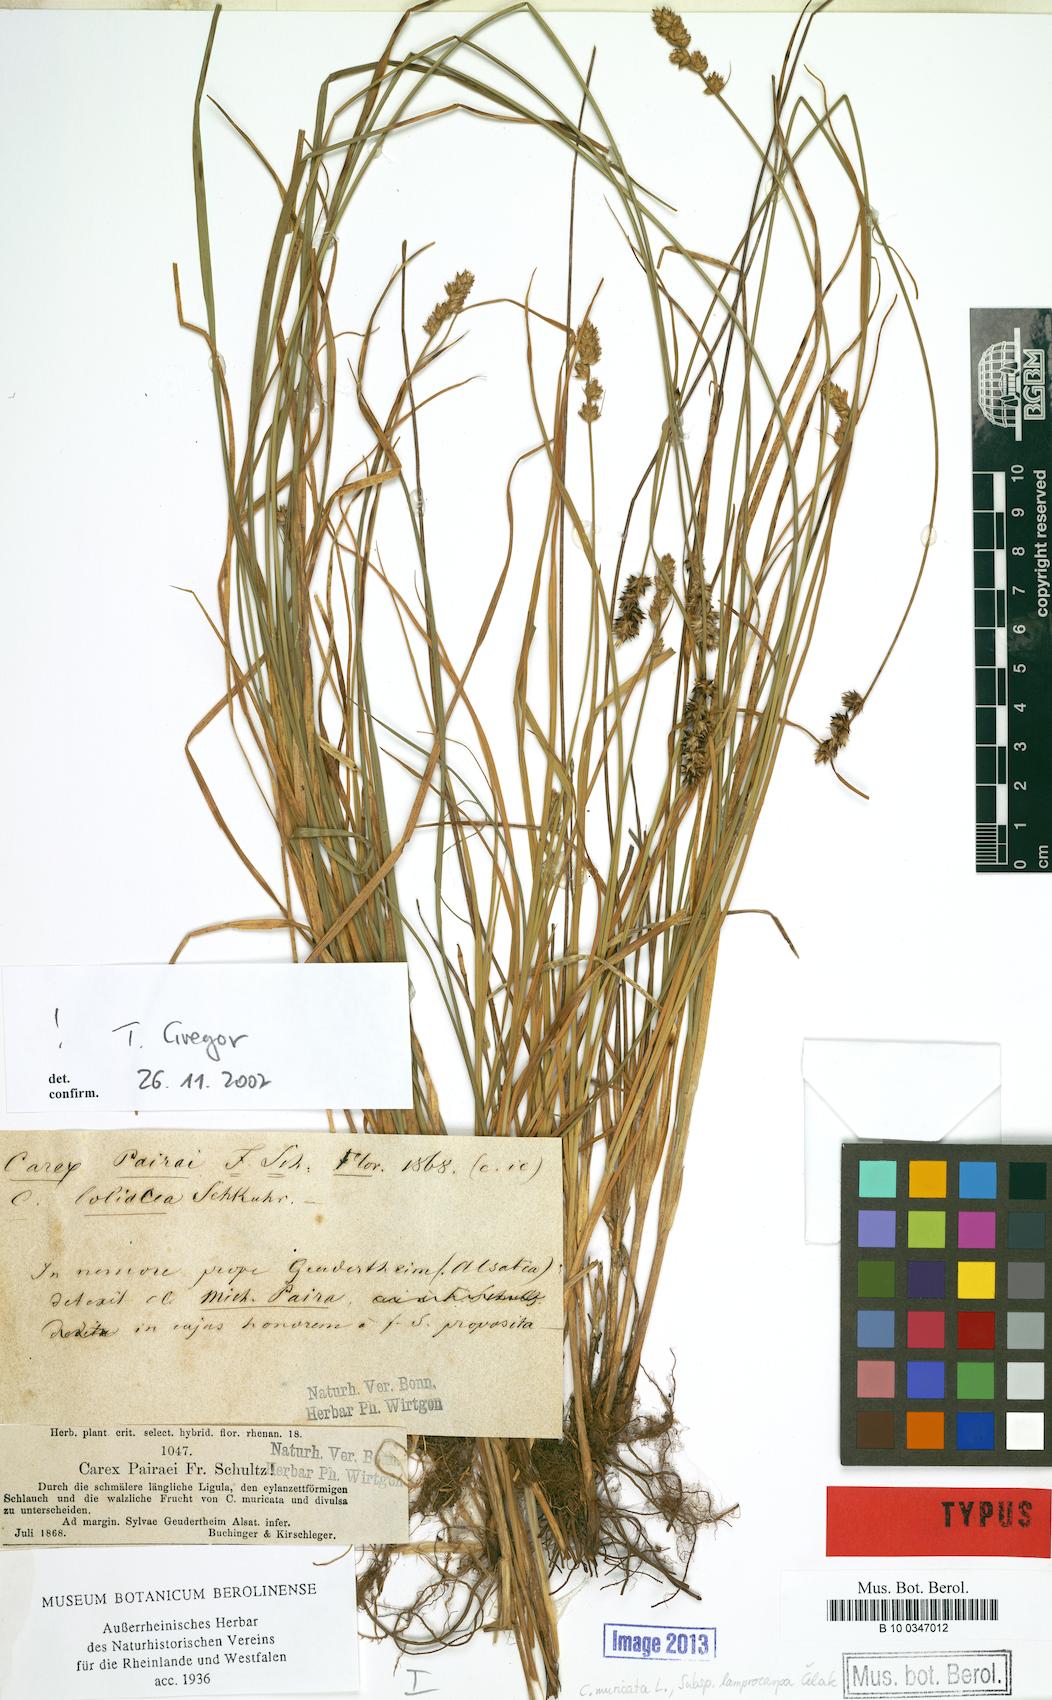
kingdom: Plantae
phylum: Tracheophyta
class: Liliopsida
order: Poales
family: Cyperaceae
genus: Carex
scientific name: Carex pairae
